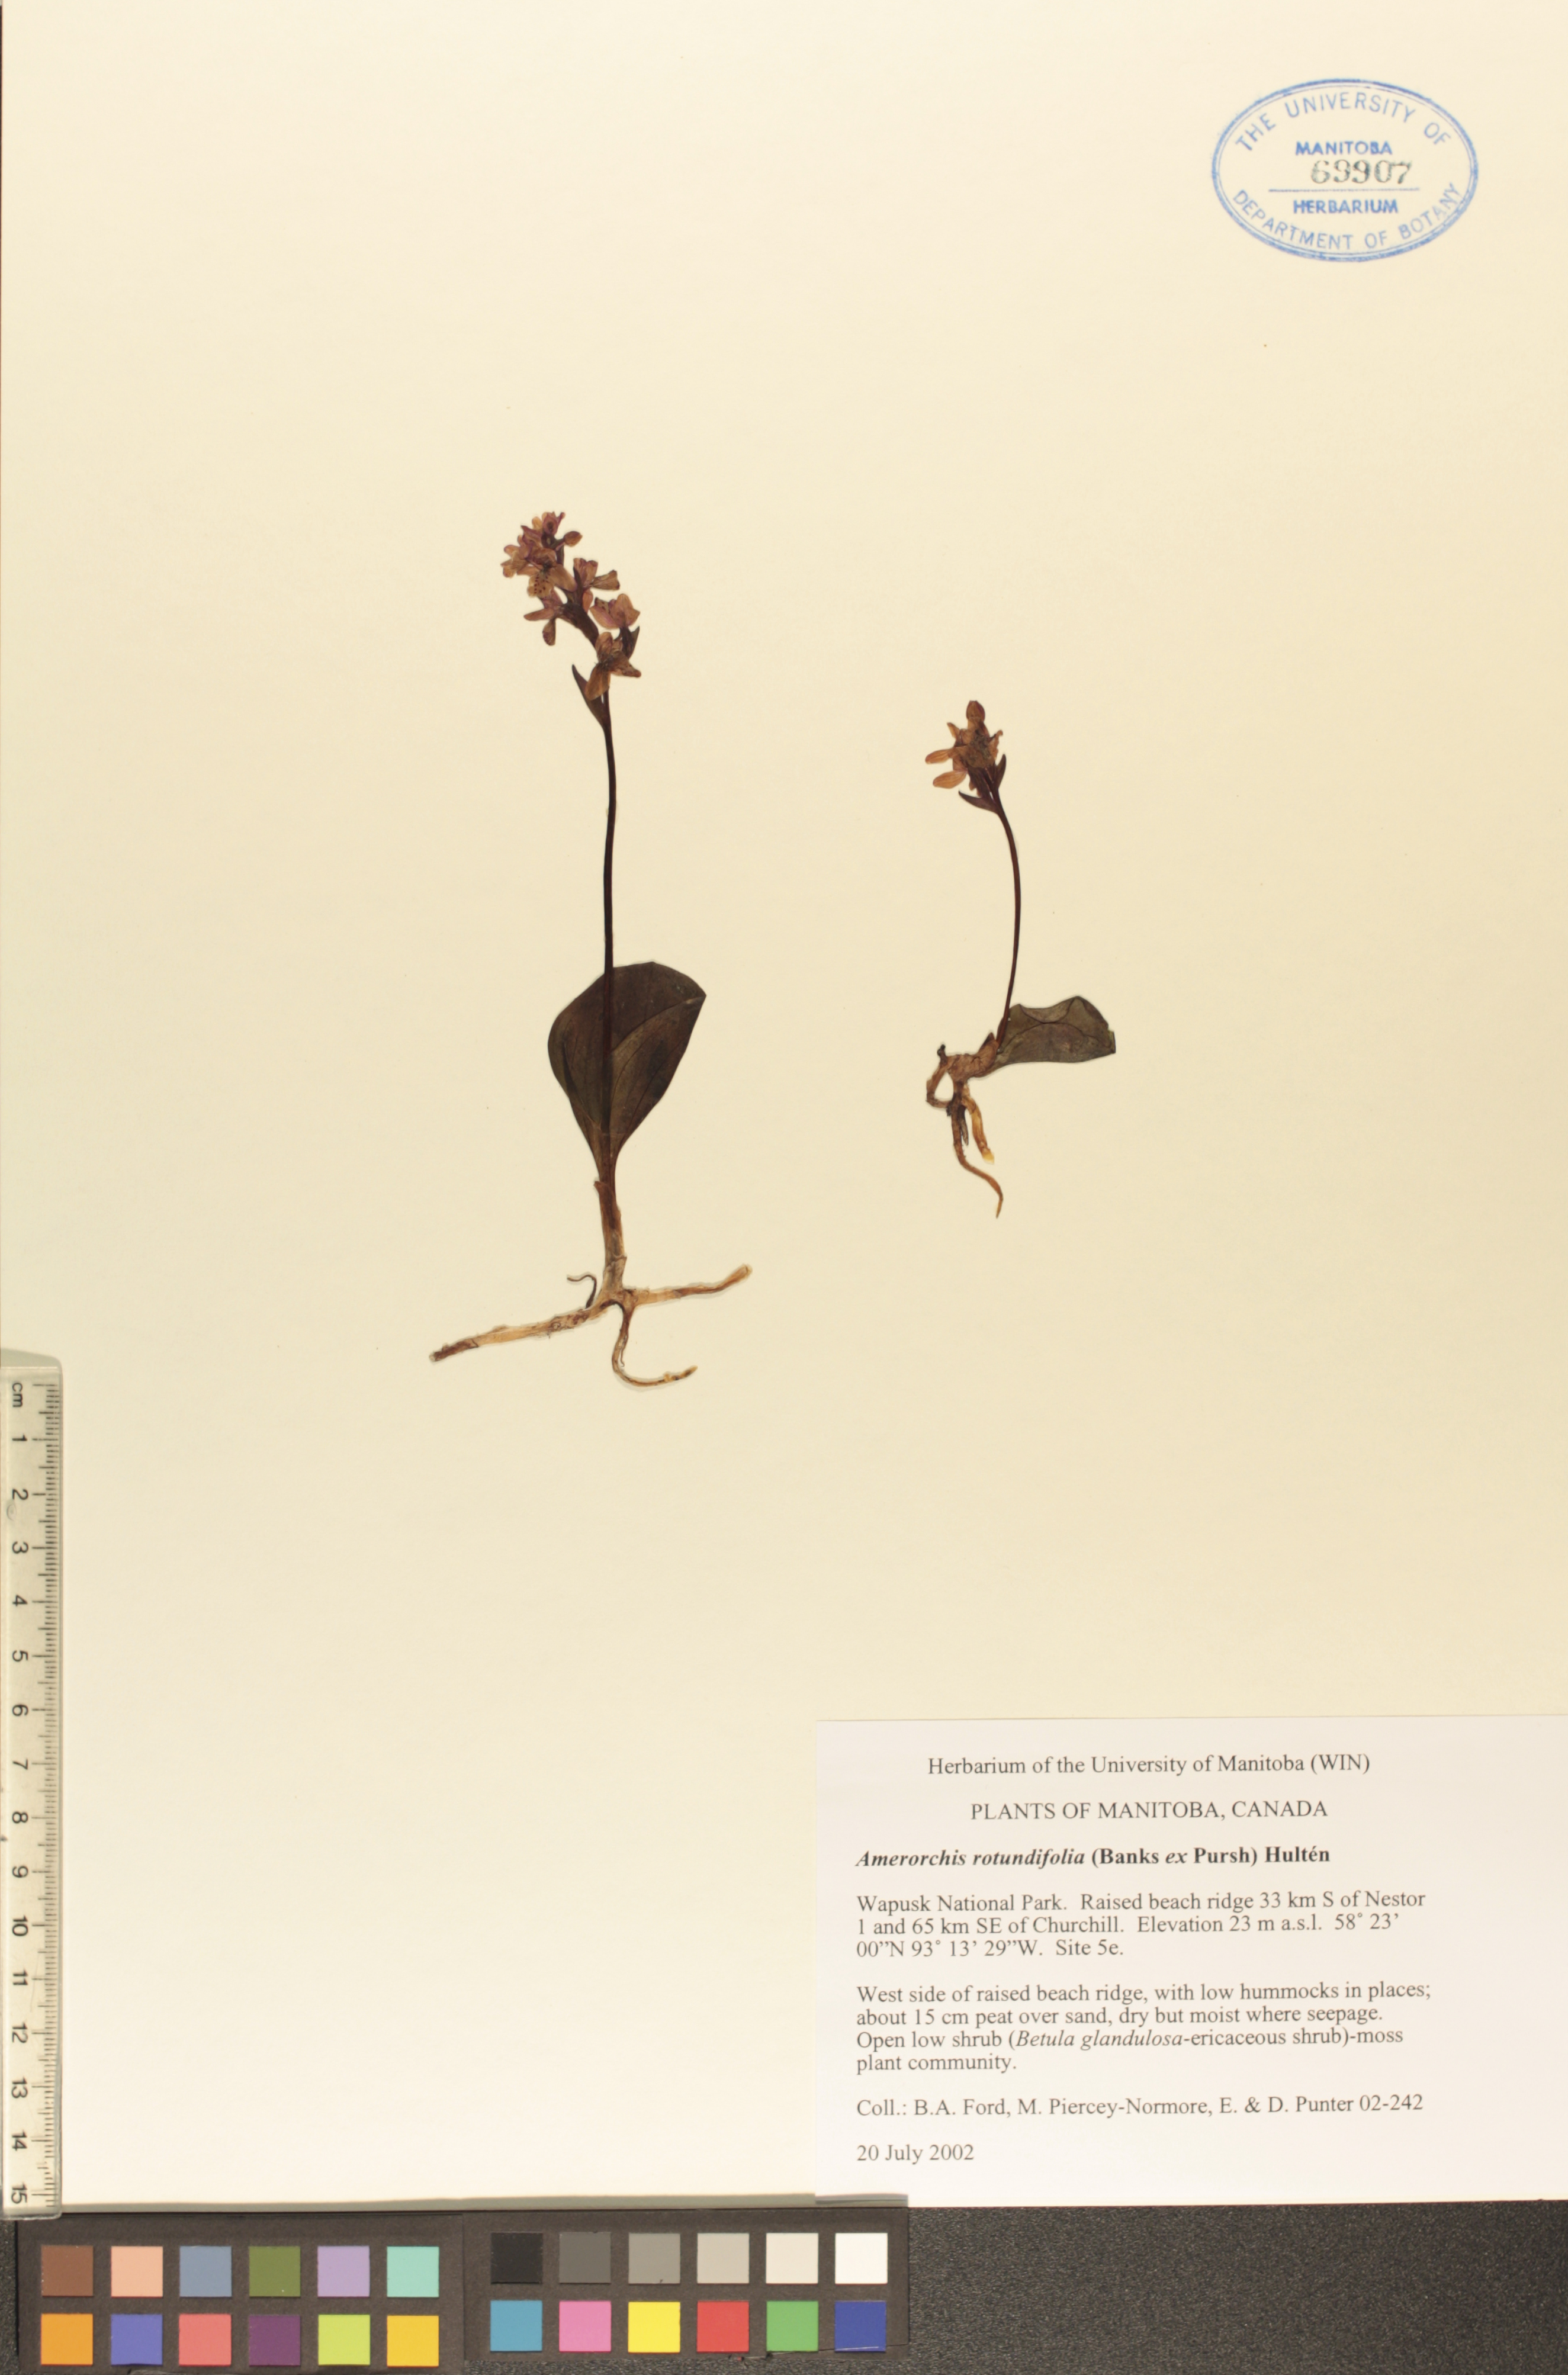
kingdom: Plantae
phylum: Tracheophyta
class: Liliopsida
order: Asparagales
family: Orchidaceae
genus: Galearis
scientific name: Galearis rotundifolia
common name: One-leaved orchis
